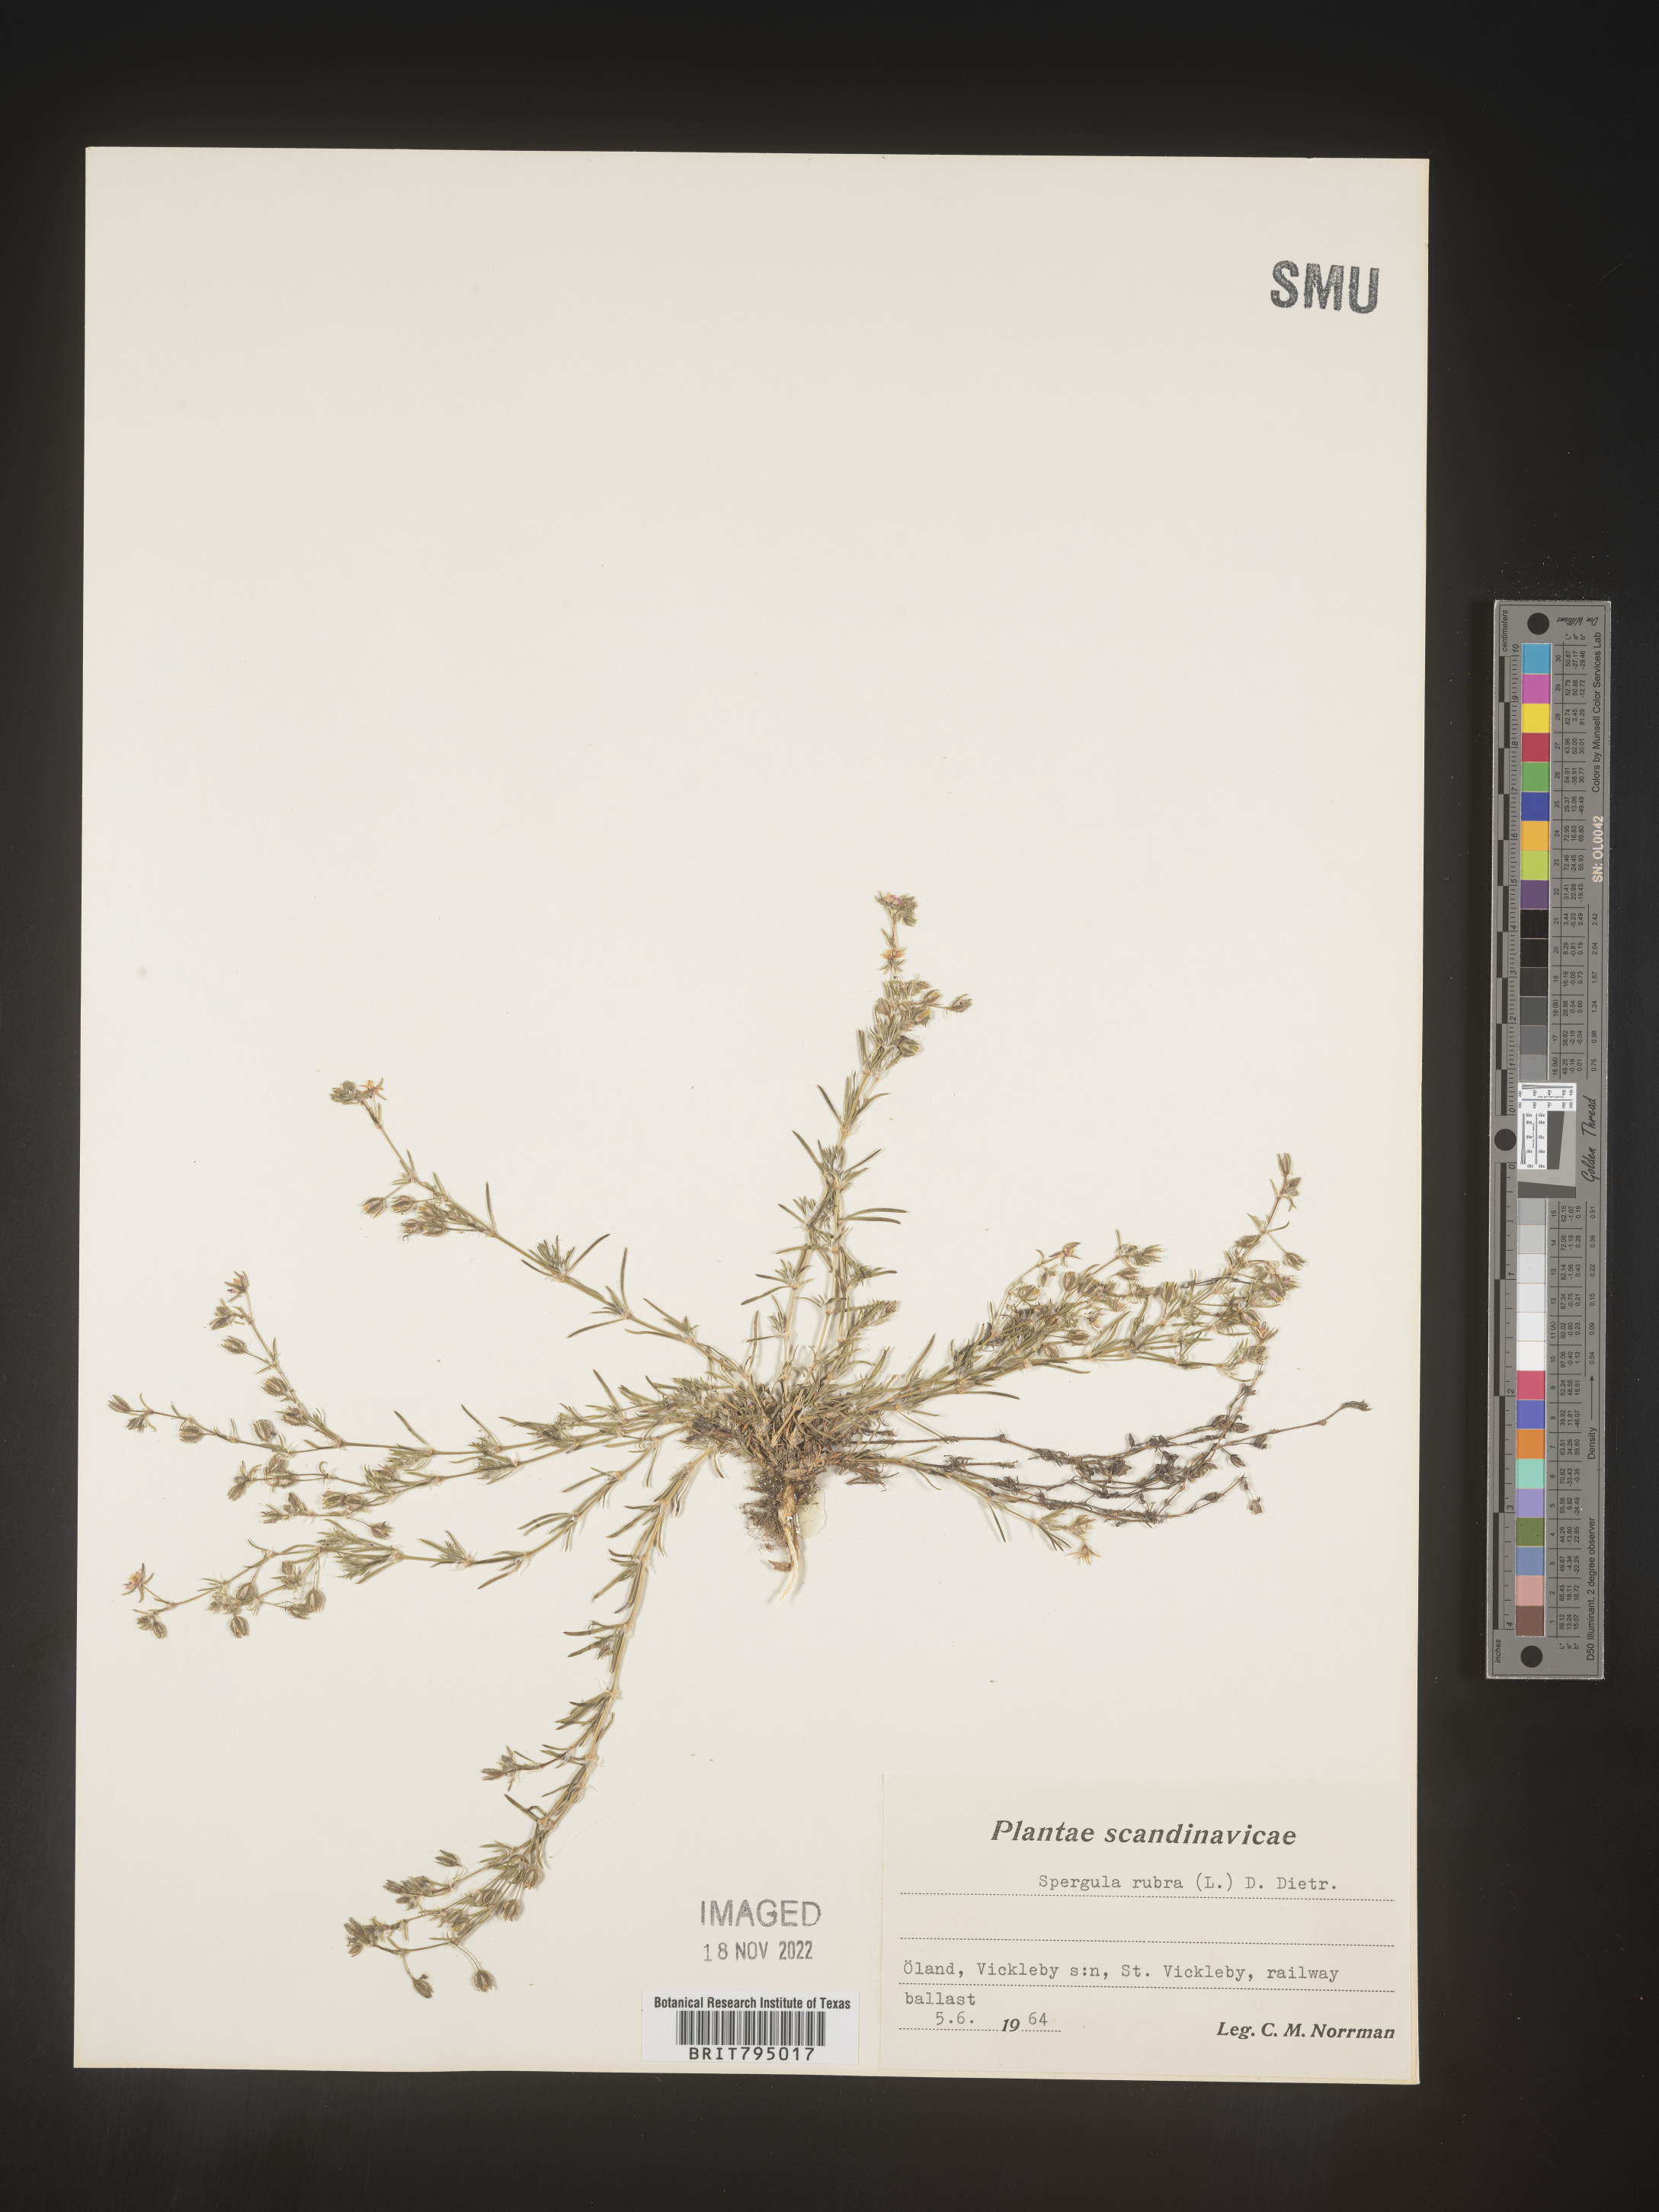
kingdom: Plantae
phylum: Tracheophyta
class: Magnoliopsida
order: Caryophyllales
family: Caryophyllaceae
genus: Spergula
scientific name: Spergula rubra
